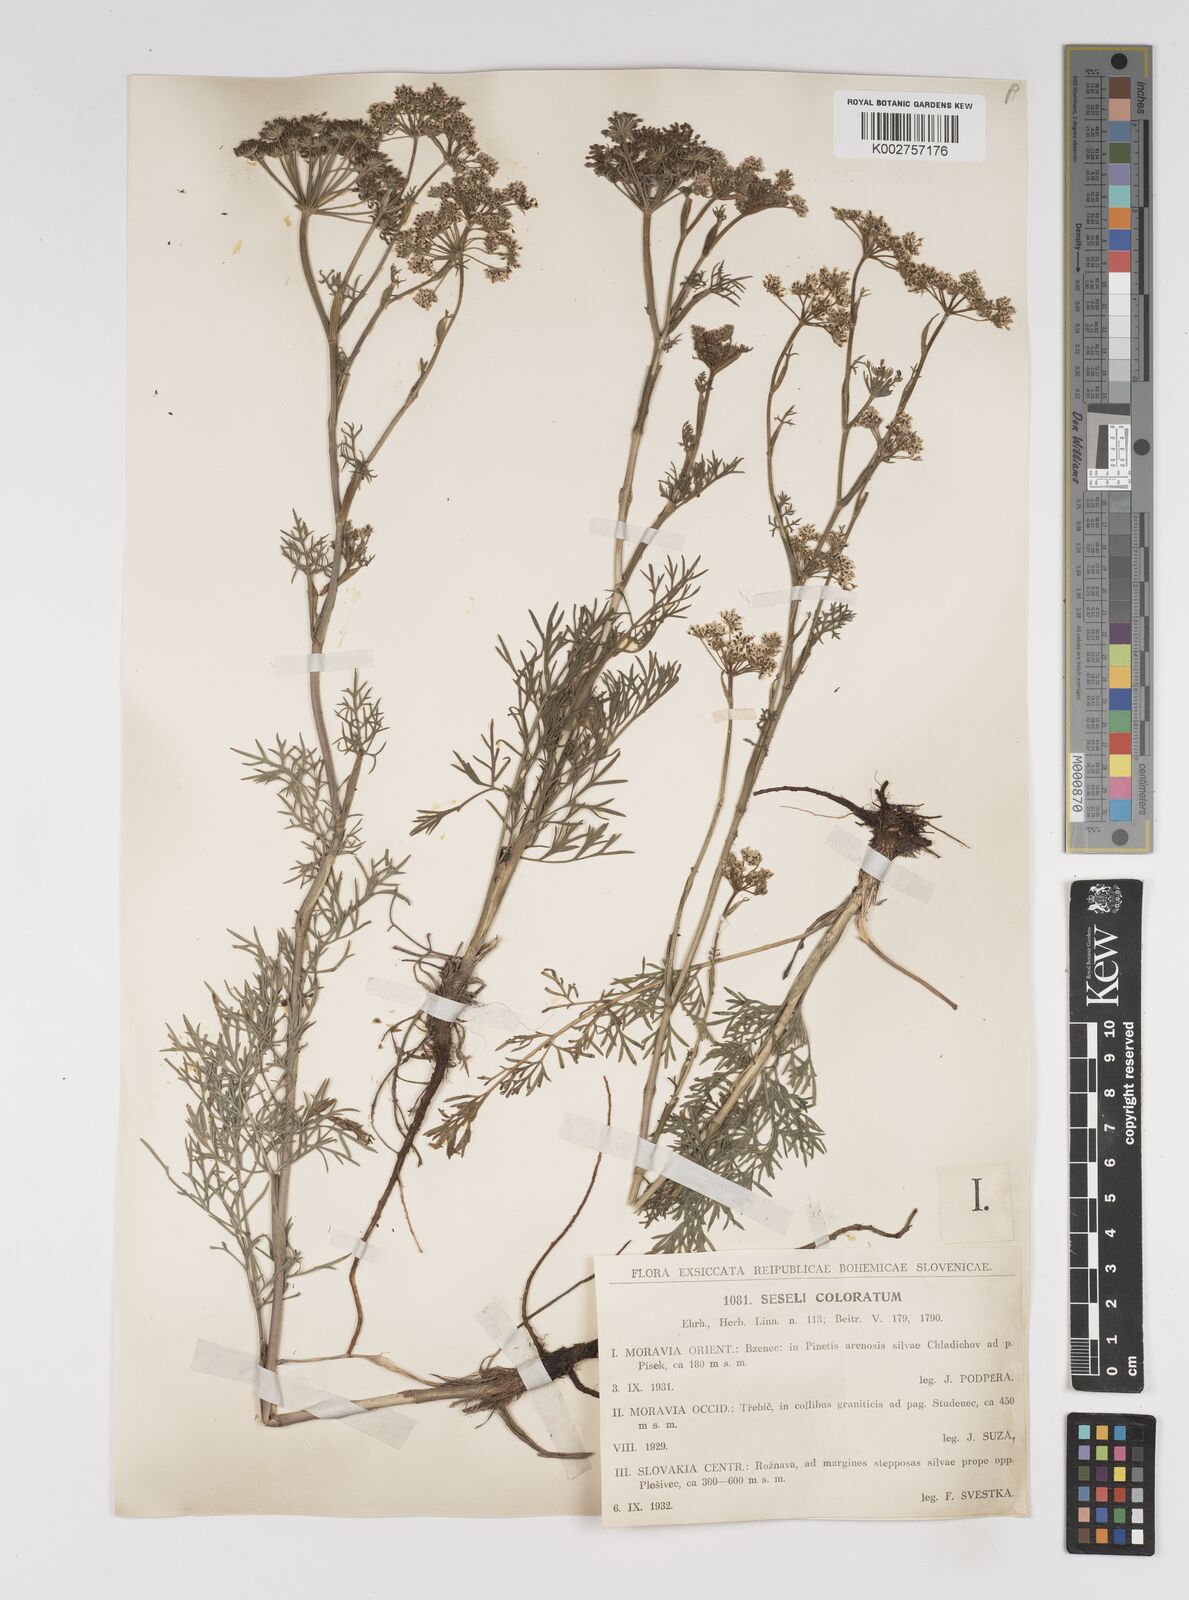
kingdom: Plantae
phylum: Tracheophyta
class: Magnoliopsida
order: Apiales
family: Apiaceae
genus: Seseli
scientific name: Seseli annuum
